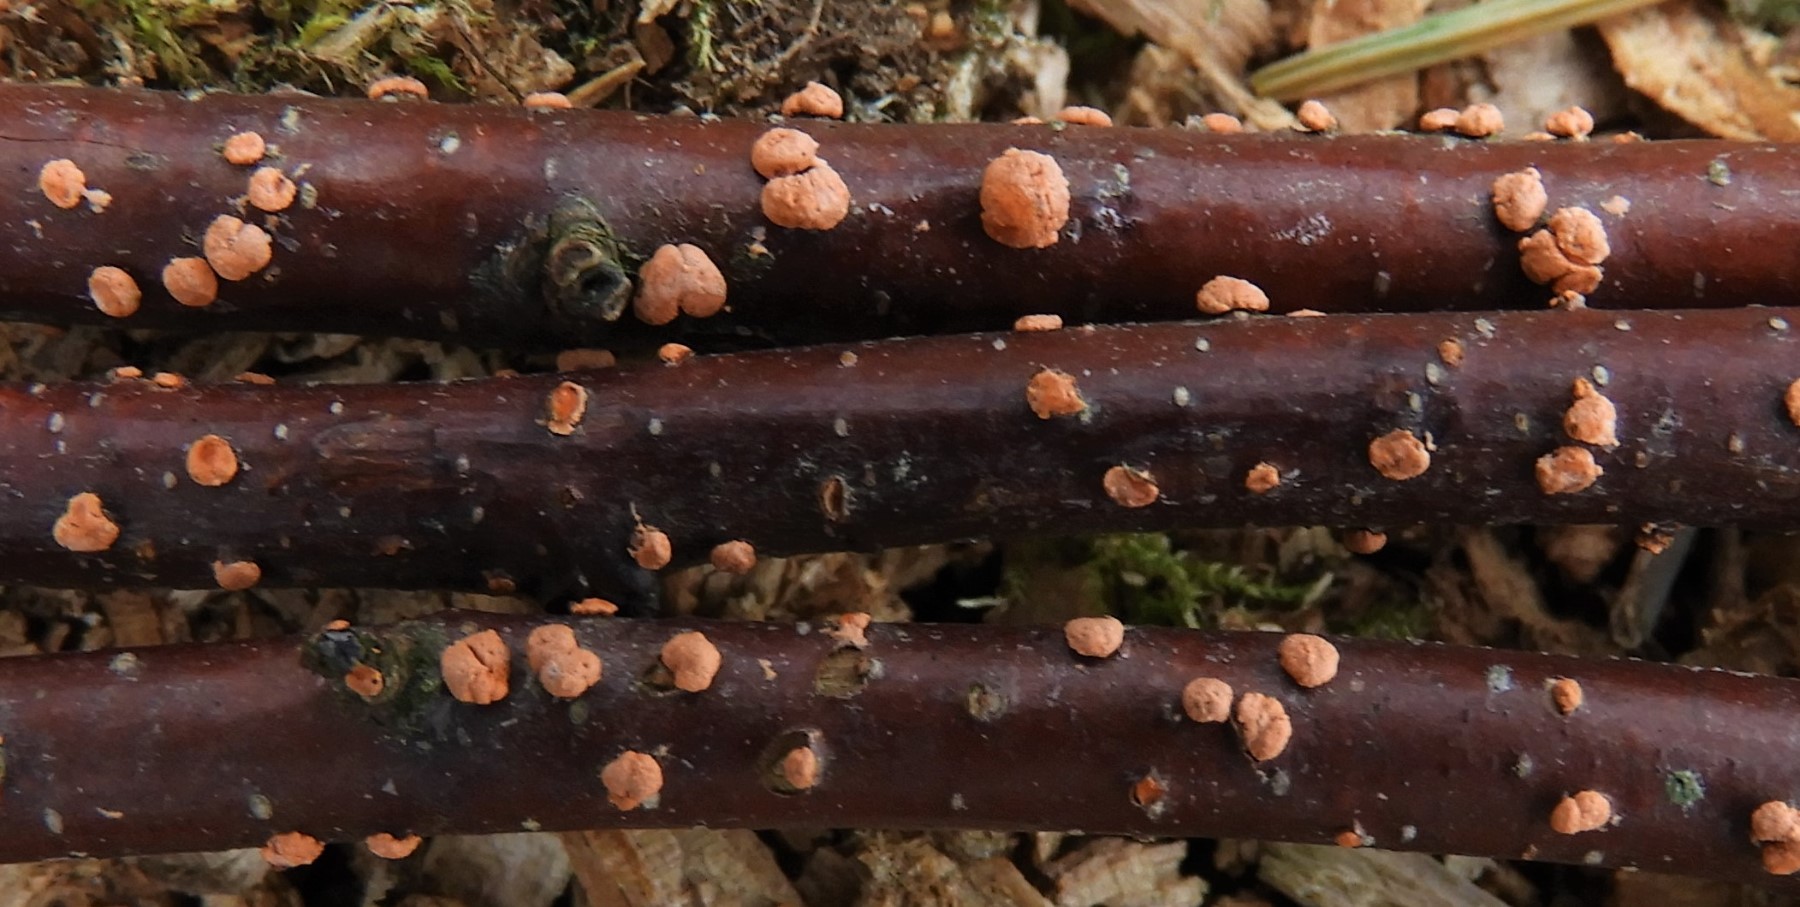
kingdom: Fungi
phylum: Ascomycota
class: Sordariomycetes
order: Hypocreales
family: Nectriaceae
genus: Nectria
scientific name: Nectria cinnabarina
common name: almindelig cinnobersvamp
